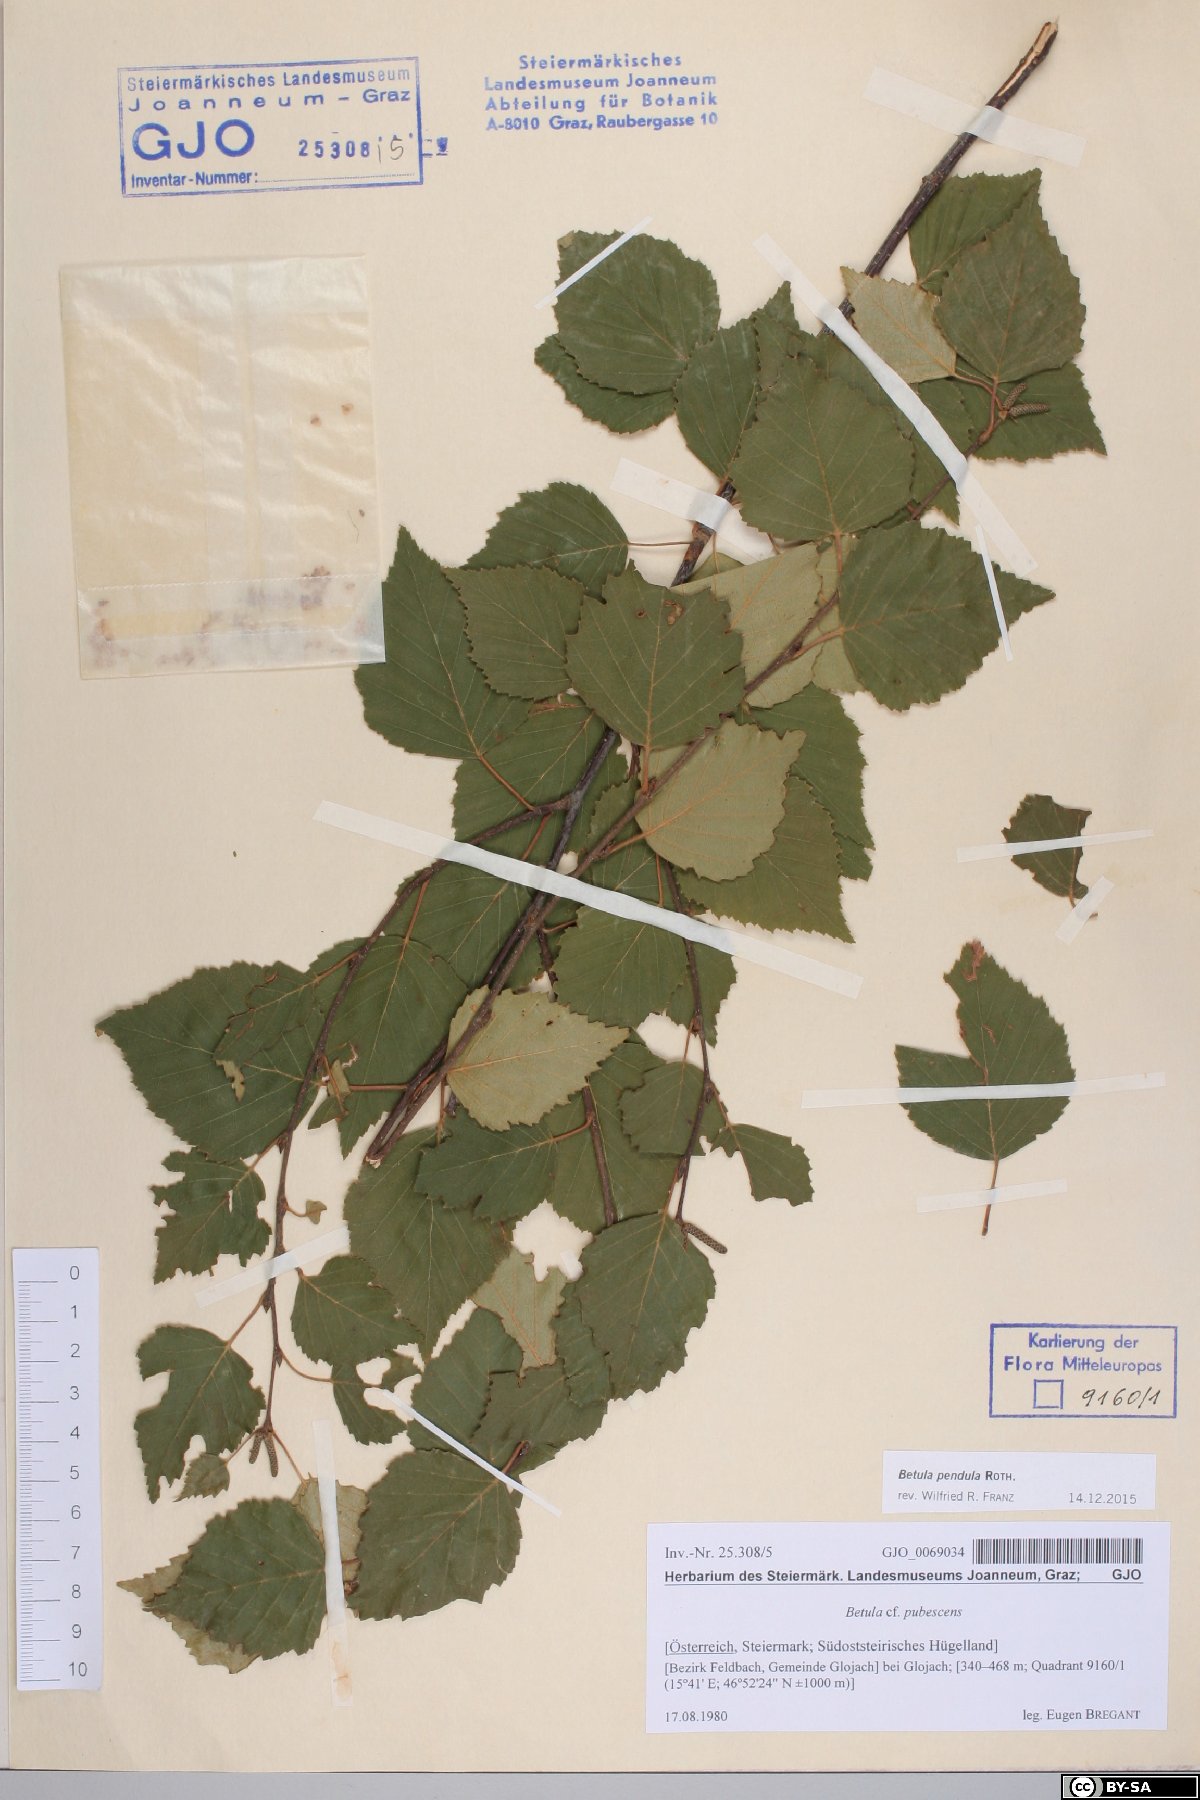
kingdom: Plantae
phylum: Tracheophyta
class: Magnoliopsida
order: Fagales
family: Betulaceae
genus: Betula
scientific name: Betula pendula
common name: Silver birch
